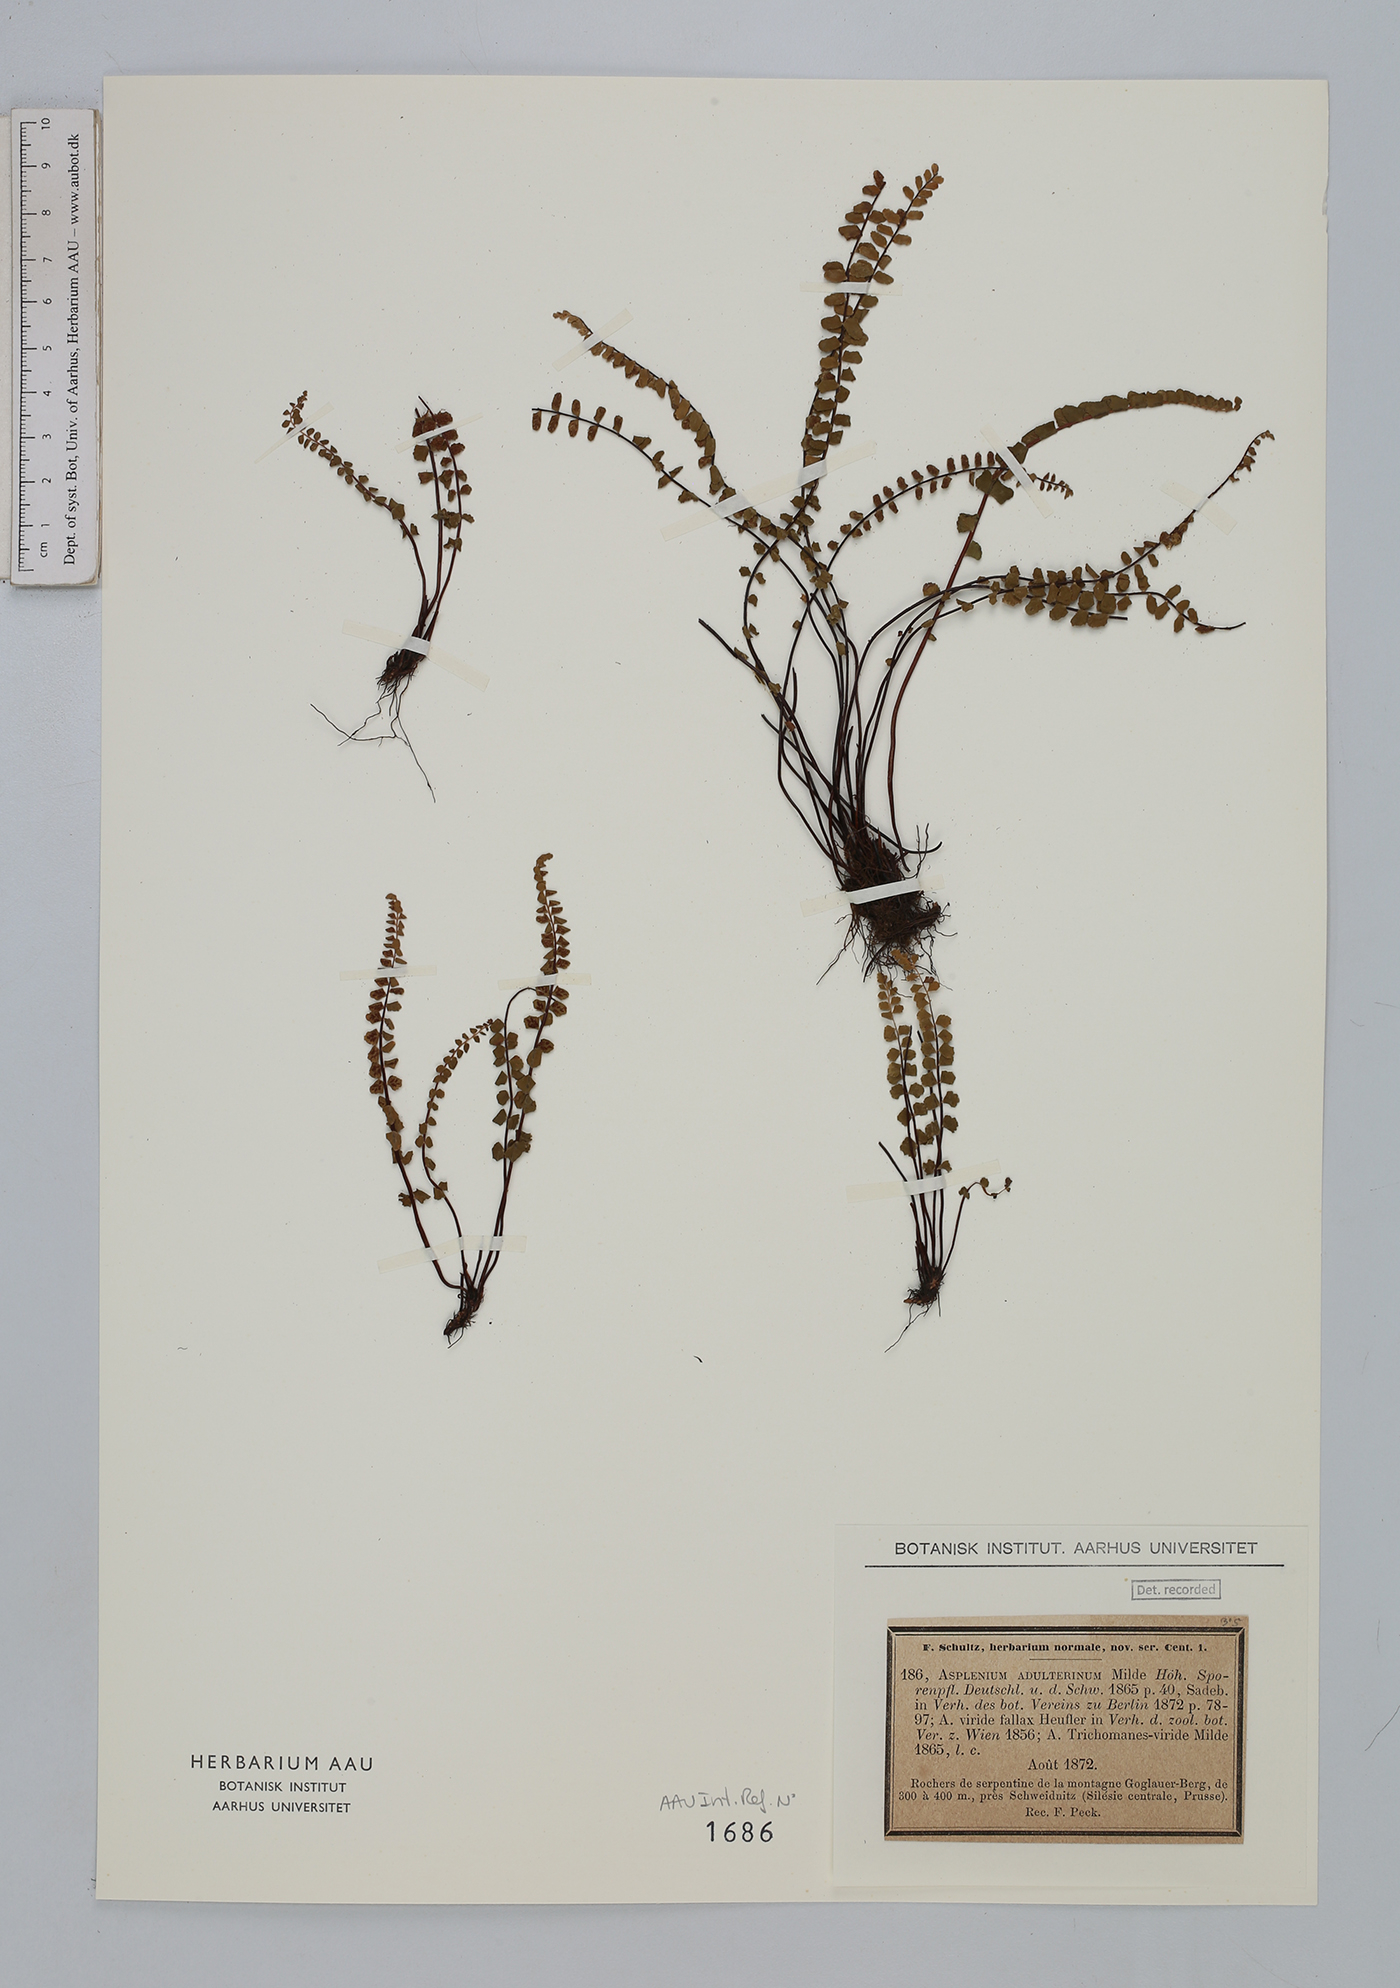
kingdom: Plantae
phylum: Tracheophyta
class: Polypodiopsida
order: Polypodiales
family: Aspleniaceae
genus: Asplenium
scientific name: Asplenium adulterinum
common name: Adulterated spleenwort
